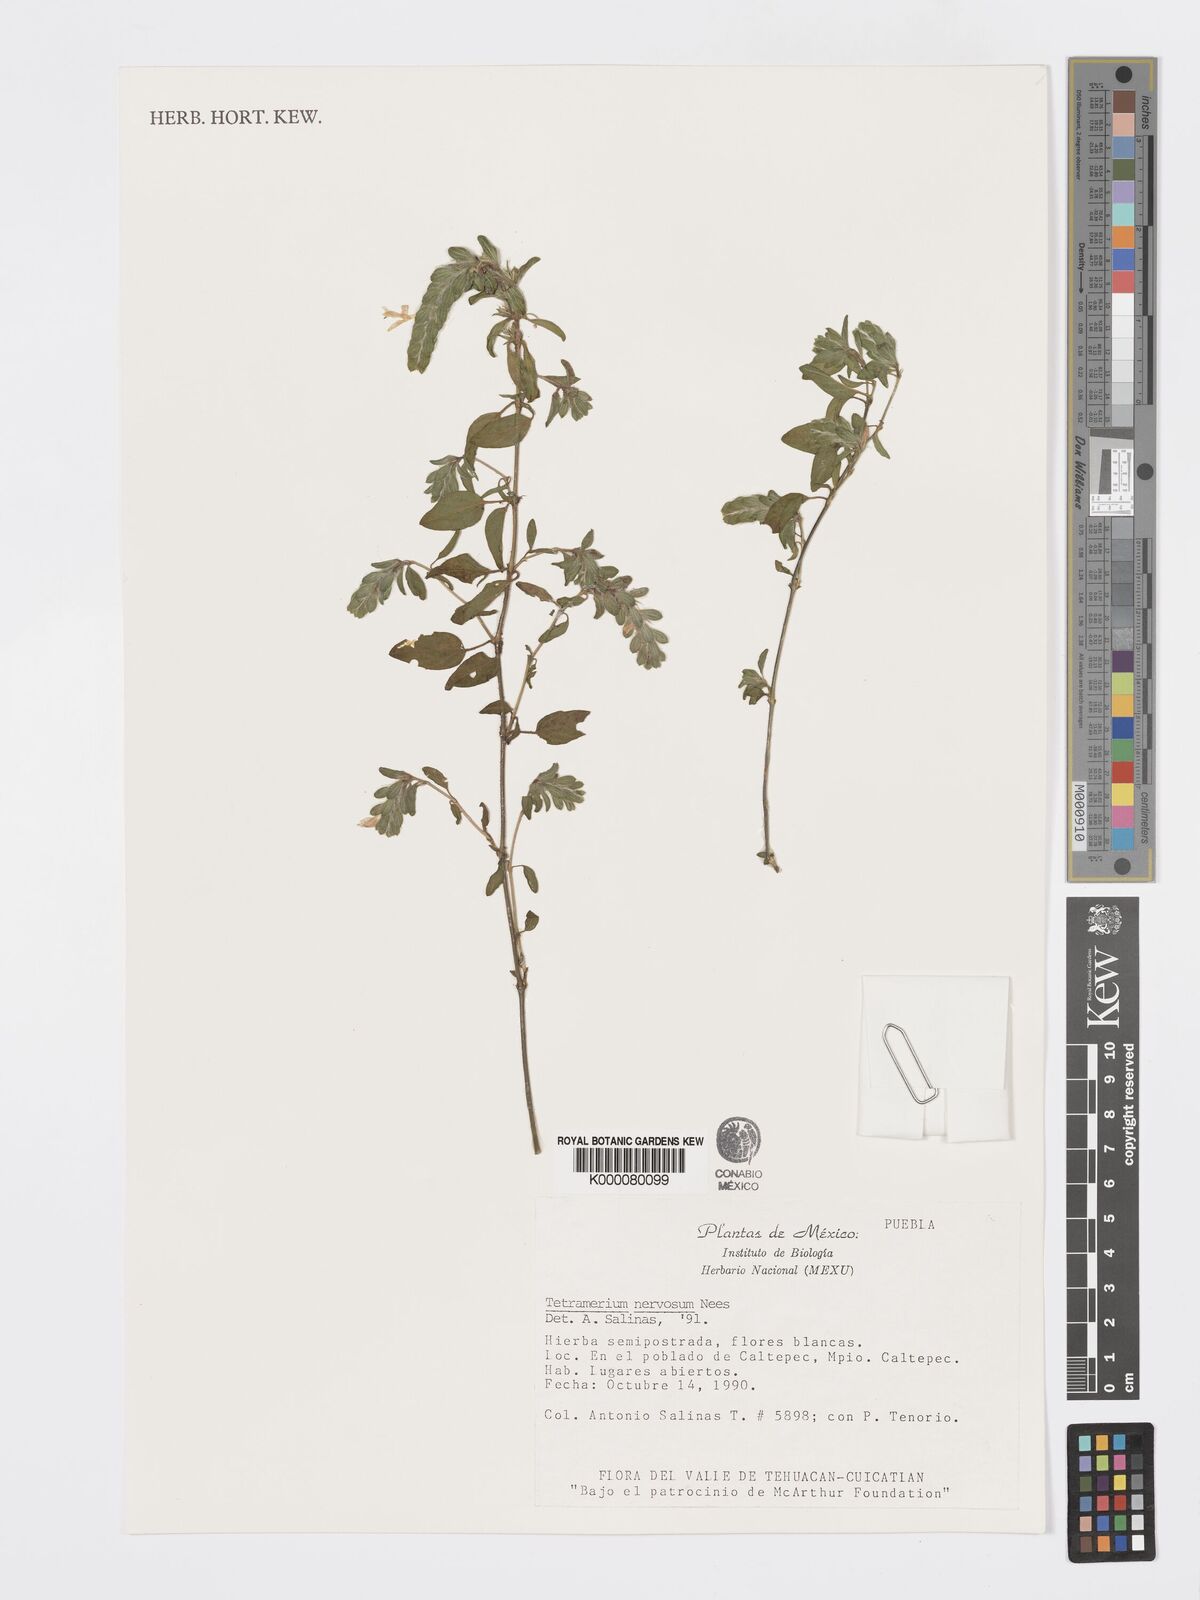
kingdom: Plantae
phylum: Tracheophyta
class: Magnoliopsida
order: Lamiales
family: Acanthaceae
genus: Tetramerium
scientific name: Tetramerium nervosum
